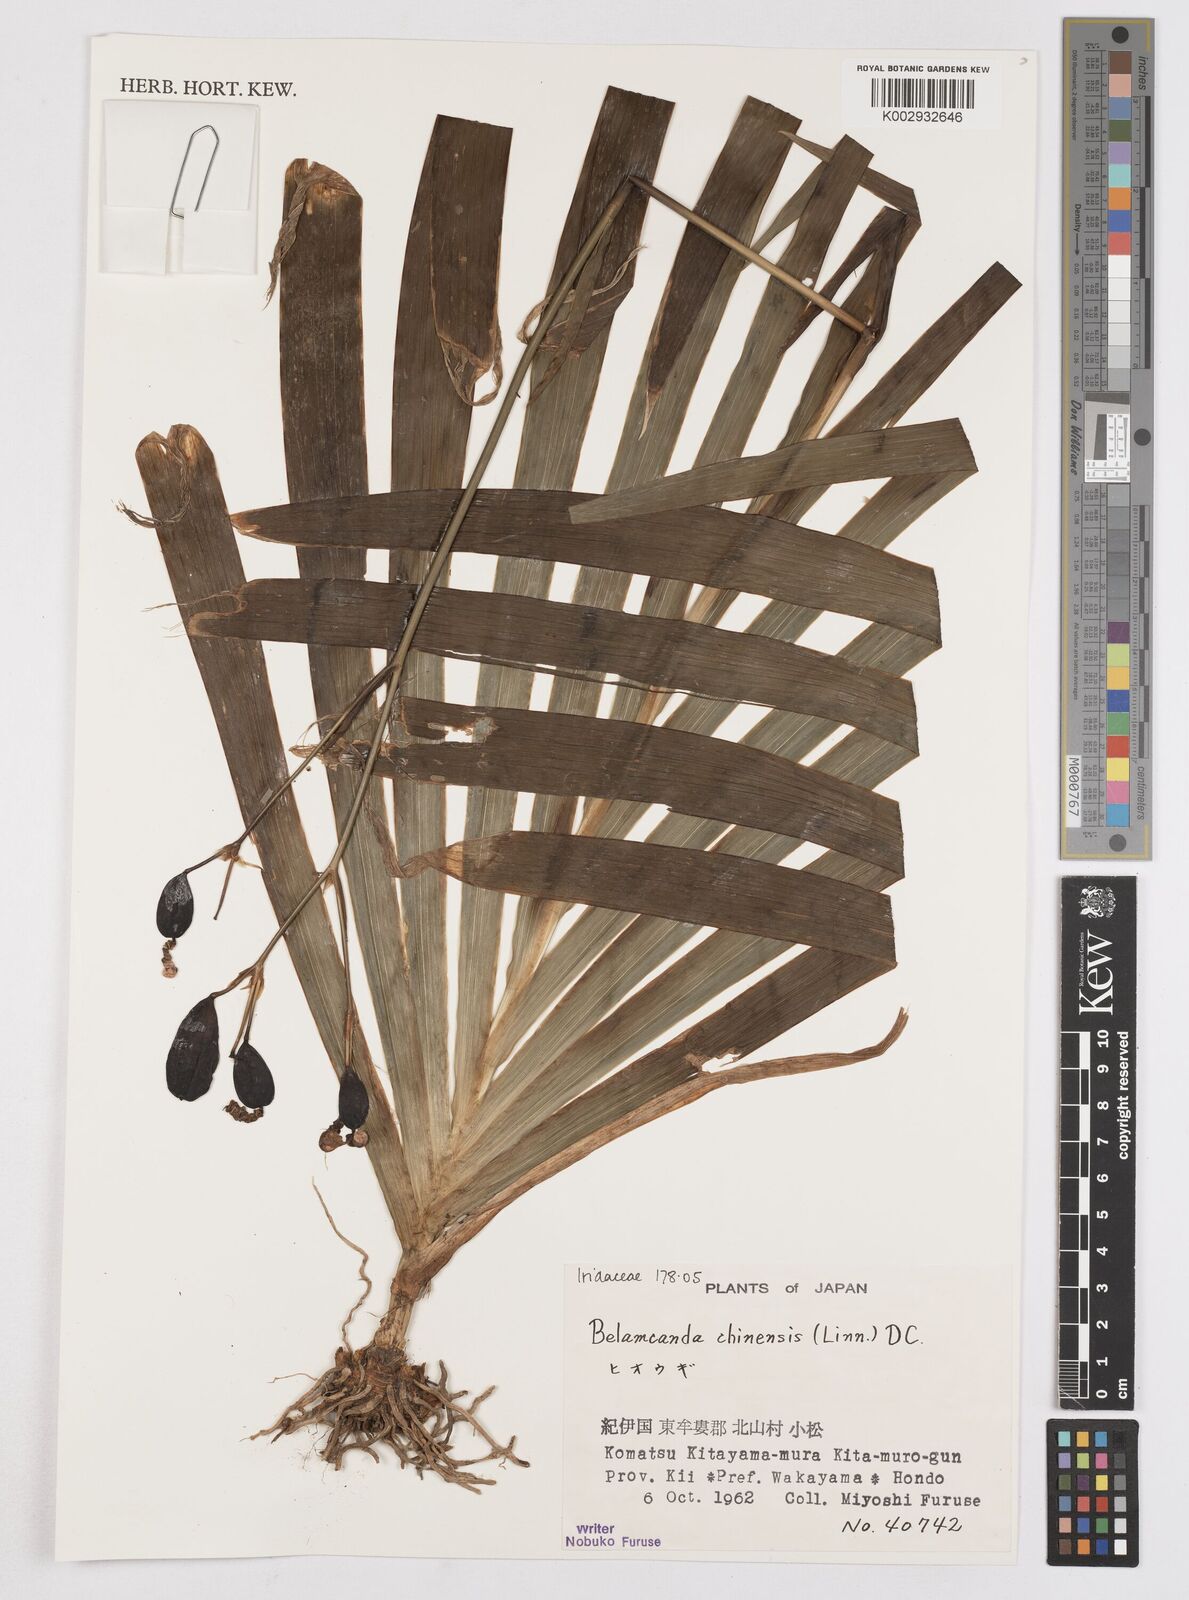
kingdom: Plantae
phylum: Tracheophyta
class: Liliopsida
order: Asparagales
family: Iridaceae
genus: Iris
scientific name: Iris
